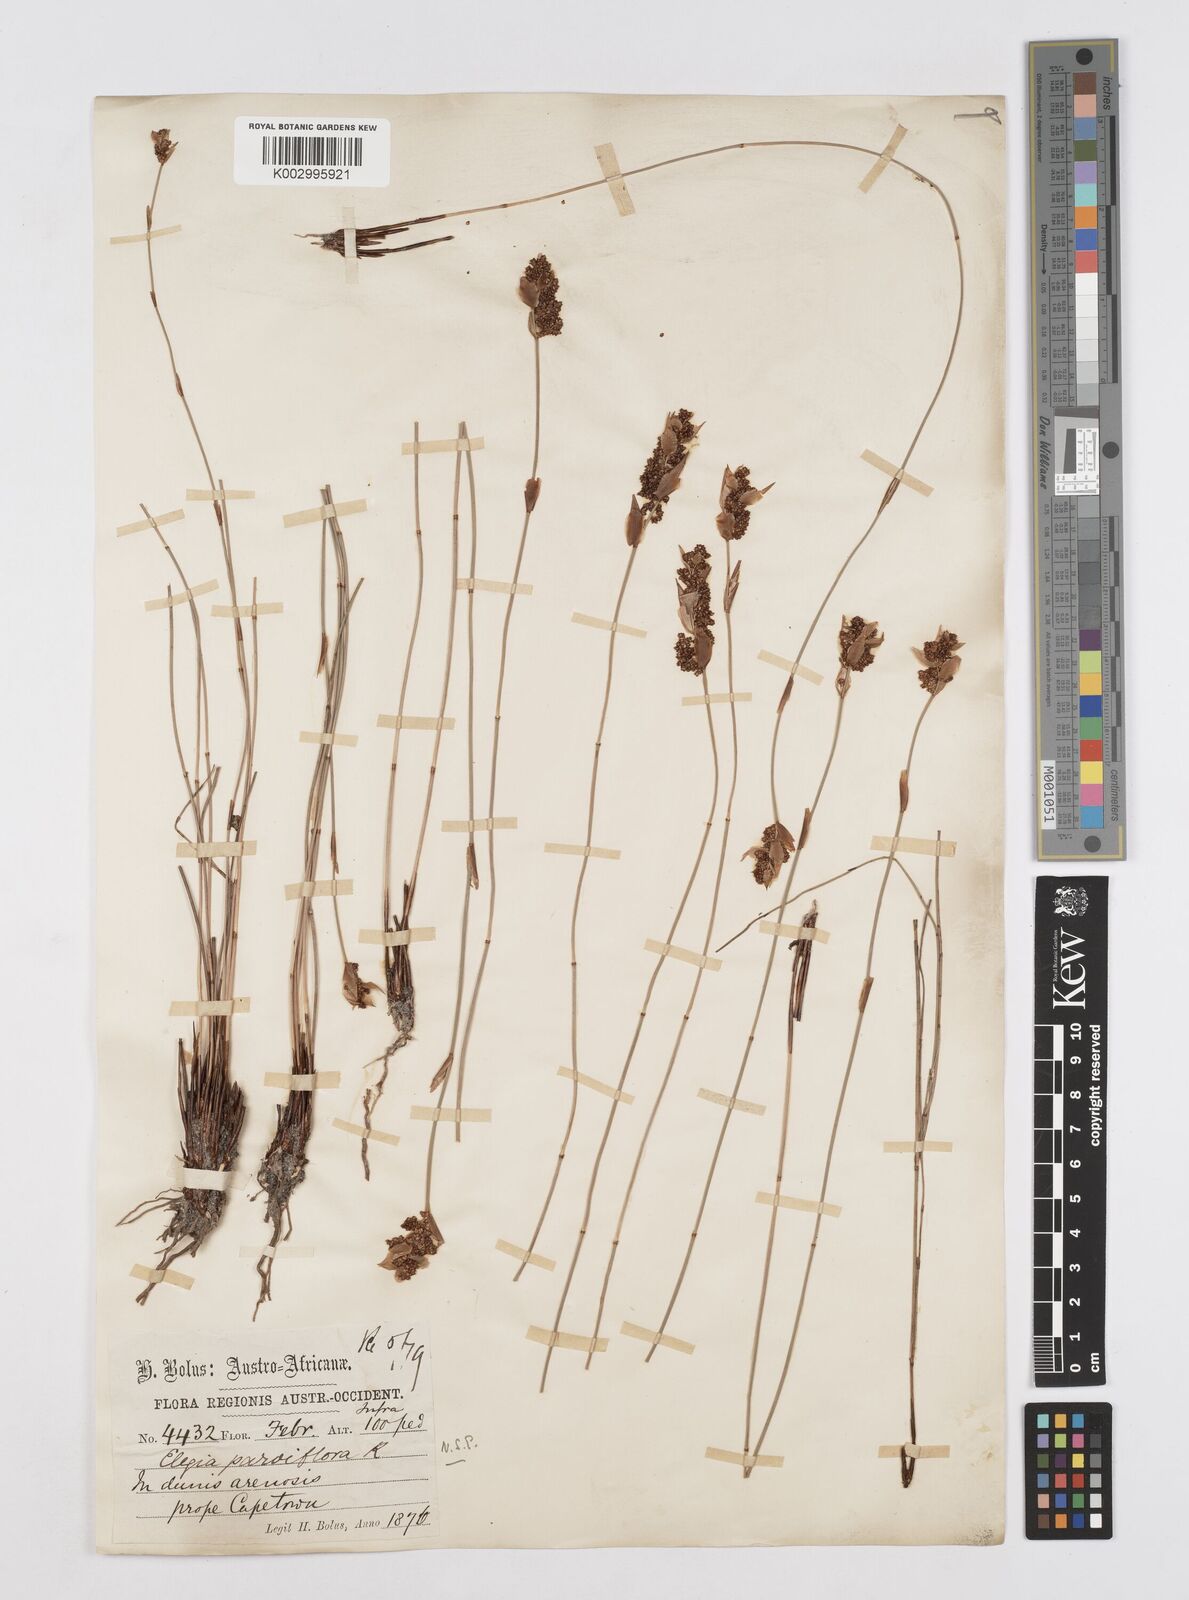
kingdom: Plantae
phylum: Tracheophyta
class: Liliopsida
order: Poales
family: Restionaceae
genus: Cannomois
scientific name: Cannomois parviflora
